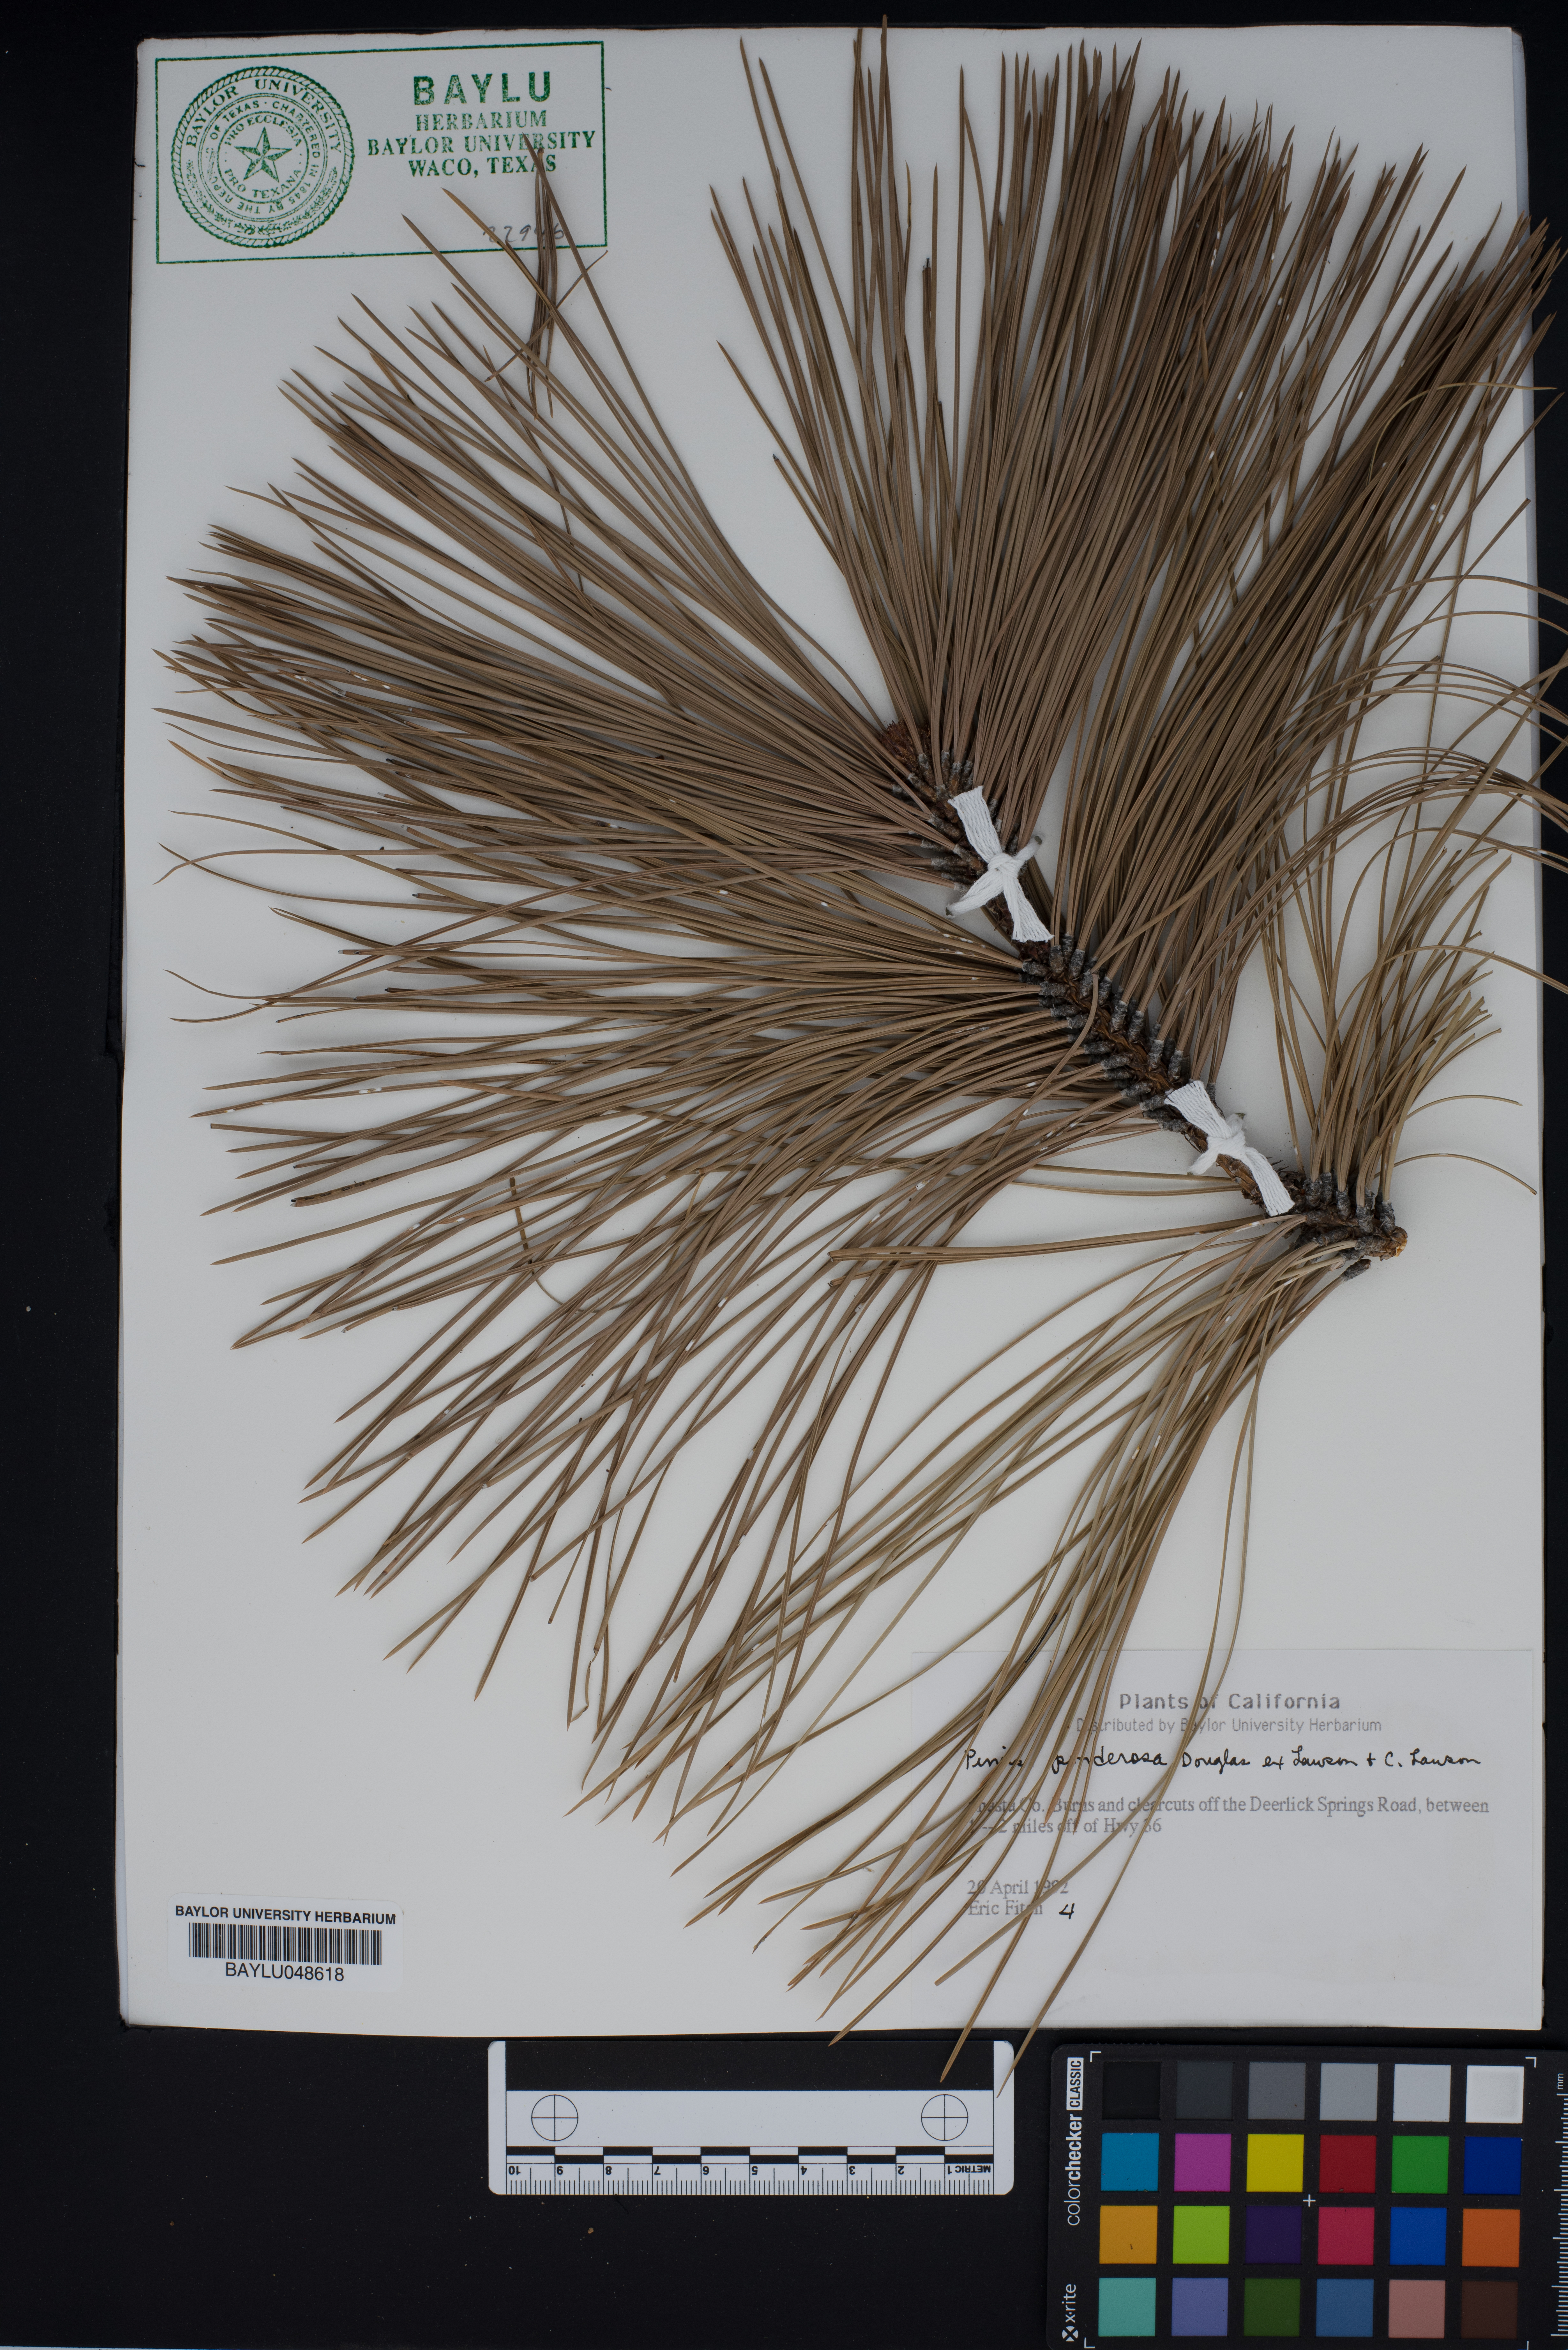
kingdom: Plantae
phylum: Tracheophyta
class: Pinopsida
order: Pinales
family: Pinaceae
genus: Pinus
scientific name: Pinus ponderosa
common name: Western yellow-pine
